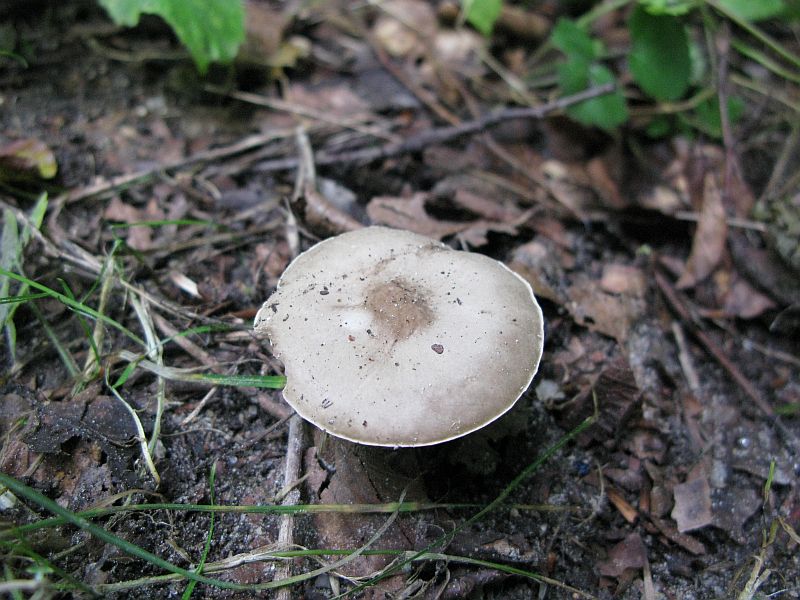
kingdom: Fungi
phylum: Basidiomycota
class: Agaricomycetes
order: Agaricales
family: Tricholomataceae
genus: Melanoleuca
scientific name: Melanoleuca polioleuca
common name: hvidbladet munkehat
